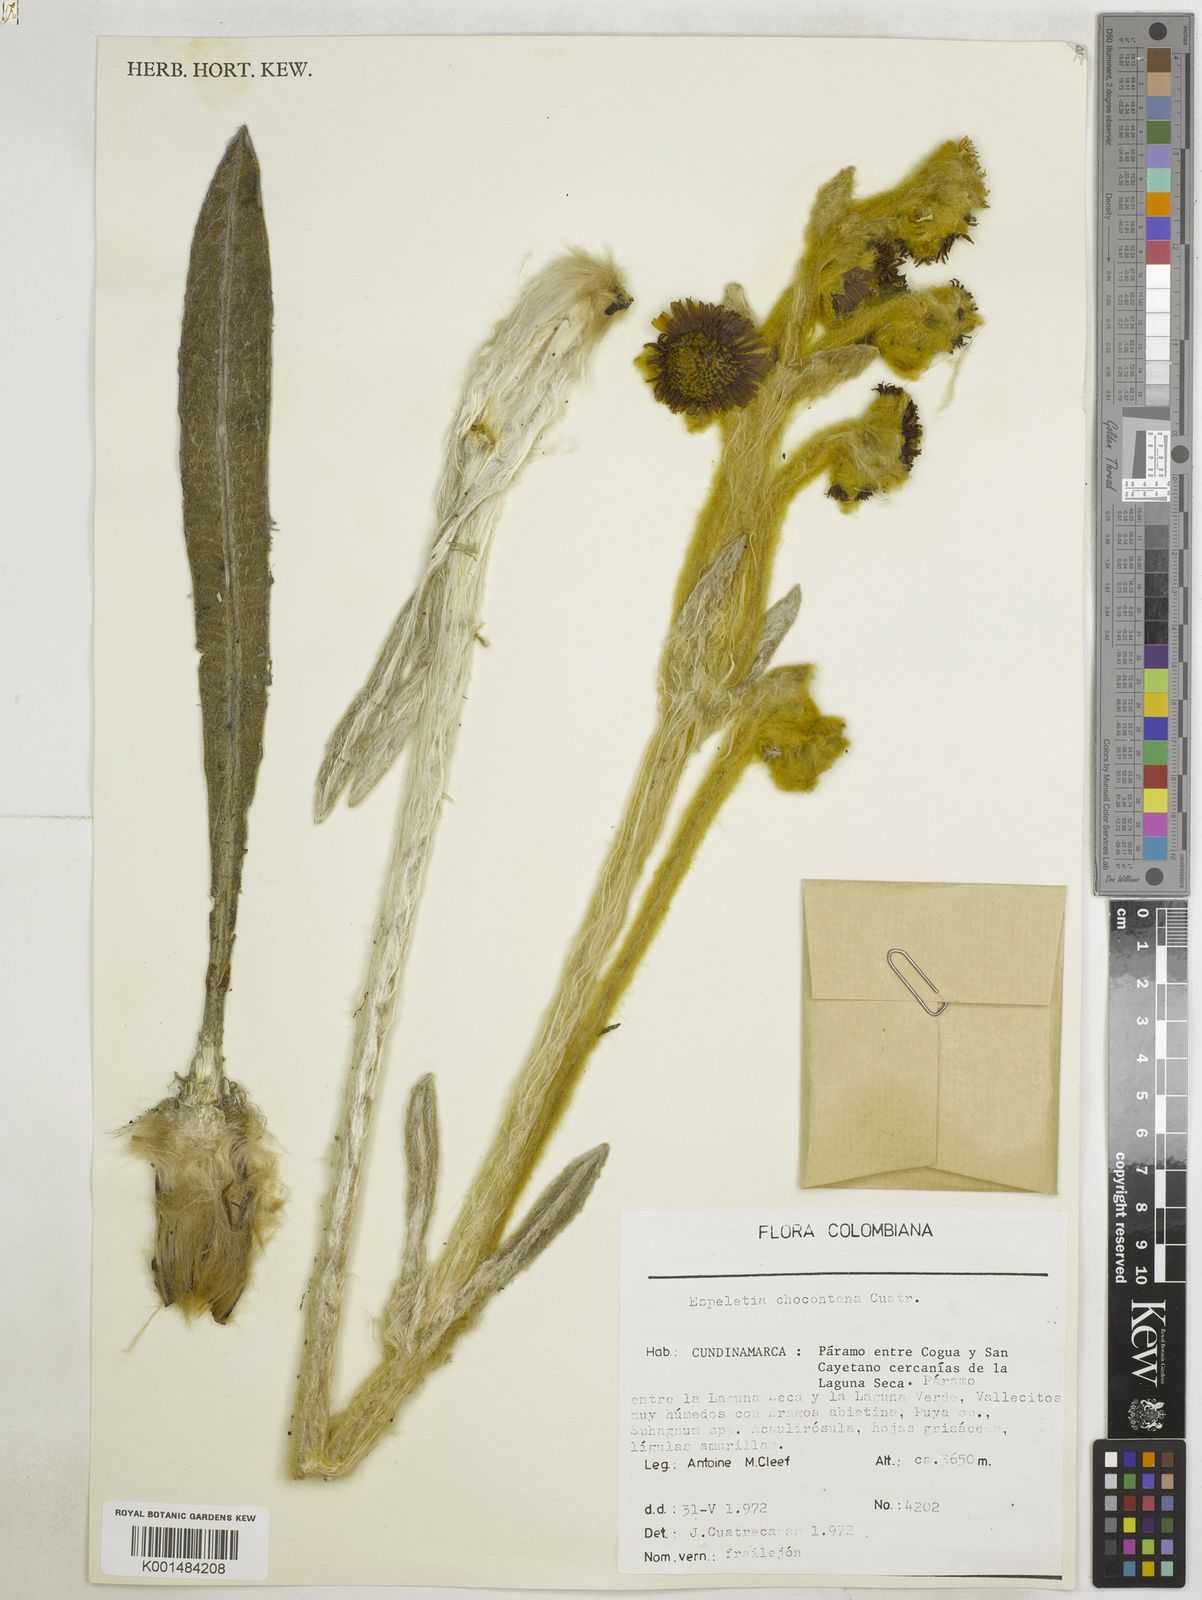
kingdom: Plantae
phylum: Tracheophyta
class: Magnoliopsida
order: Asterales
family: Asteraceae
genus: Espeletia
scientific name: Espeletia chocontana
